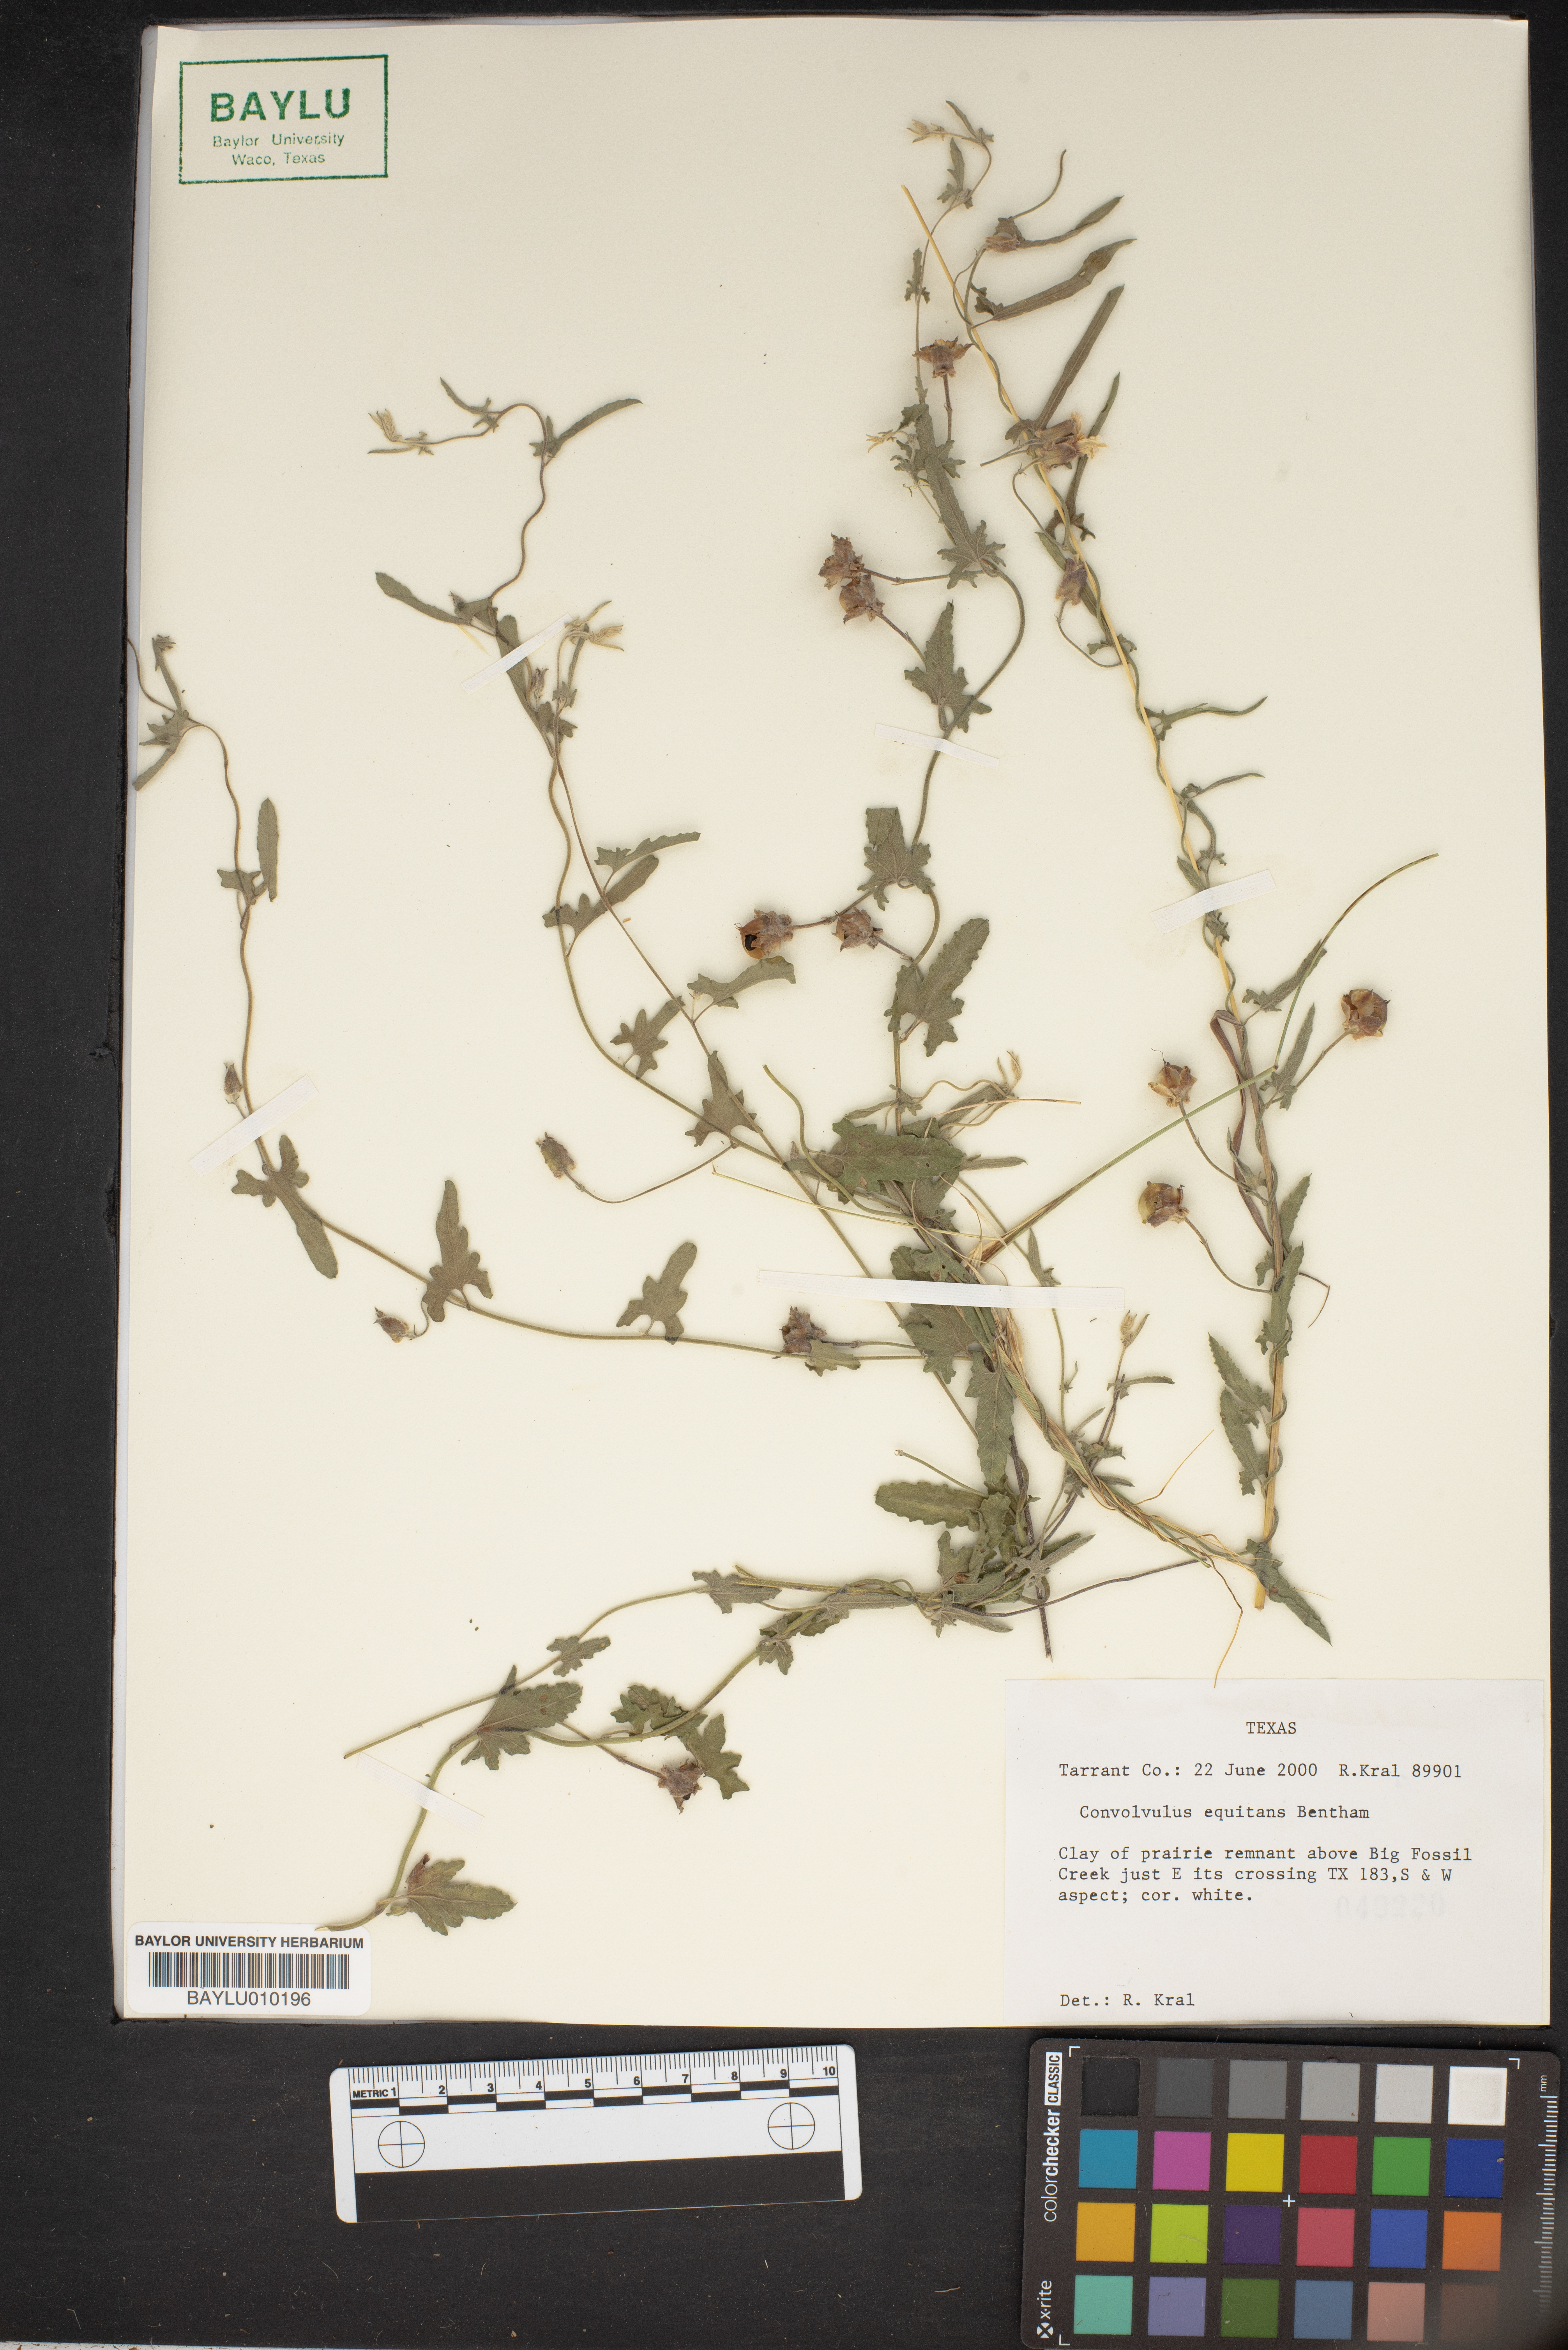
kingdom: Plantae
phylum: Tracheophyta
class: Magnoliopsida
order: Solanales
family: Convolvulaceae
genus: Convolvulus
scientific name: Convolvulus equitans
